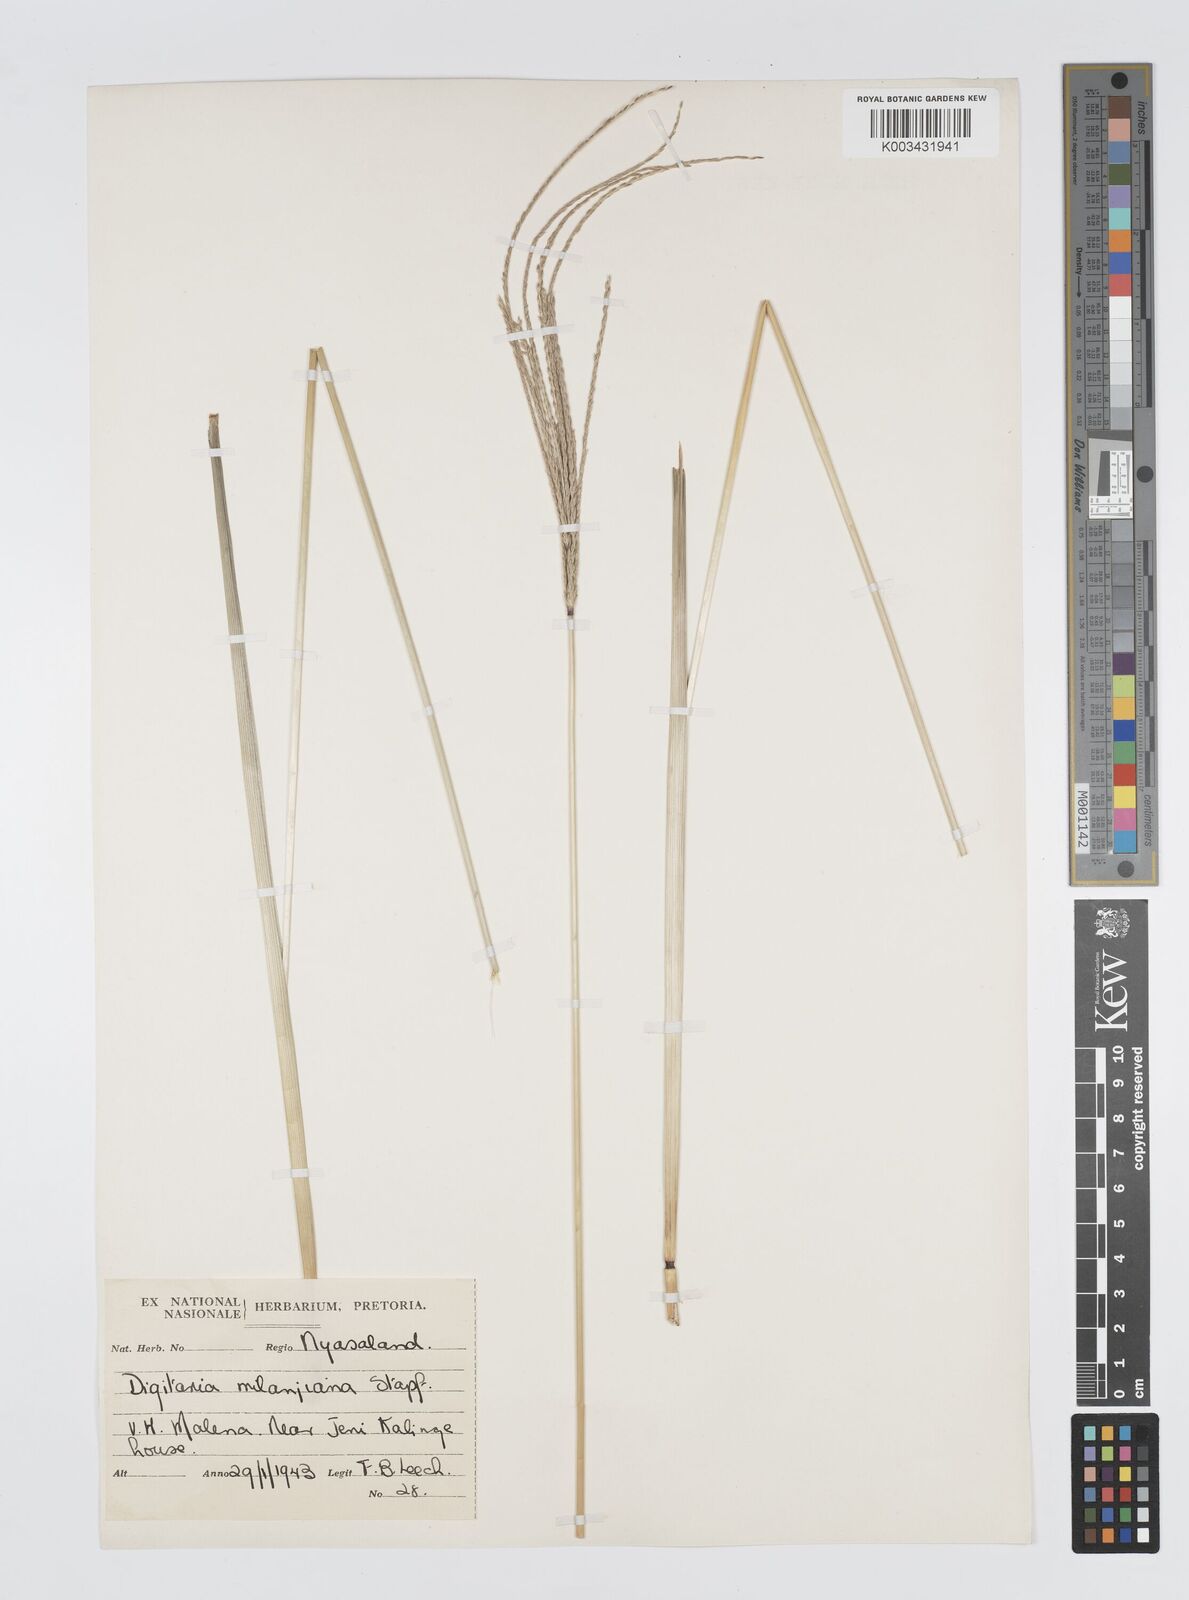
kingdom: Plantae
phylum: Tracheophyta
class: Liliopsida
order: Poales
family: Poaceae
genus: Digitaria
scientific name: Digitaria milanjiana
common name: Madagascar crabgrass
